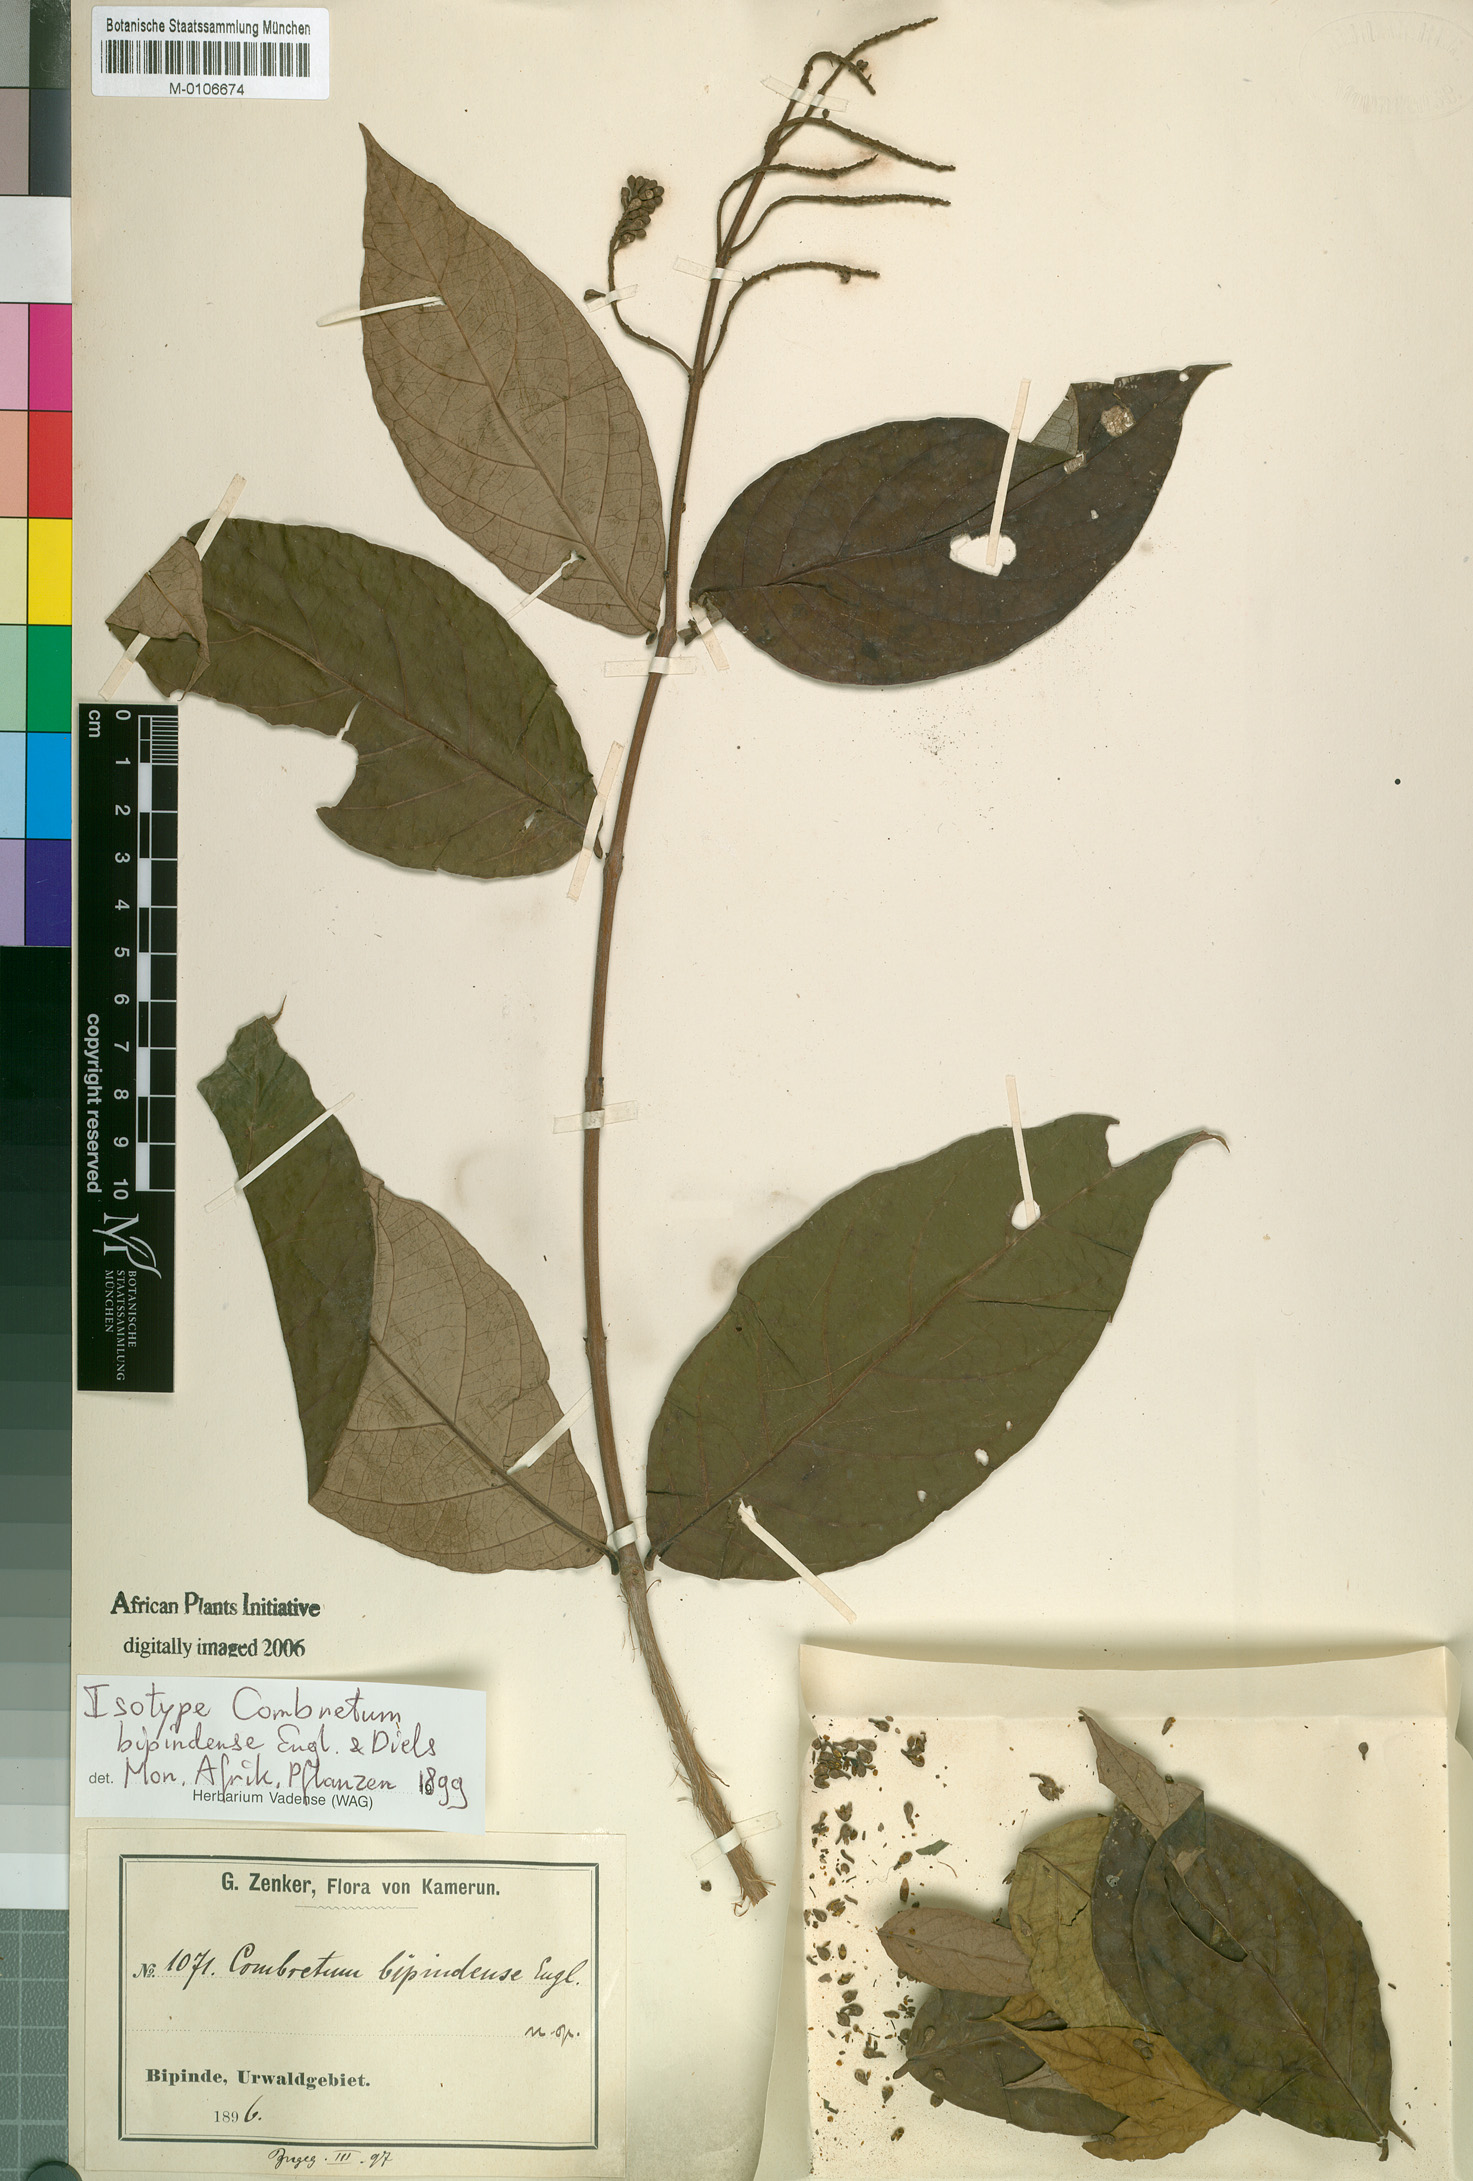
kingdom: Plantae
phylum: Tracheophyta
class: Magnoliopsida
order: Myrtales
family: Combretaceae
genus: Combretum
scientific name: Combretum bipindense
